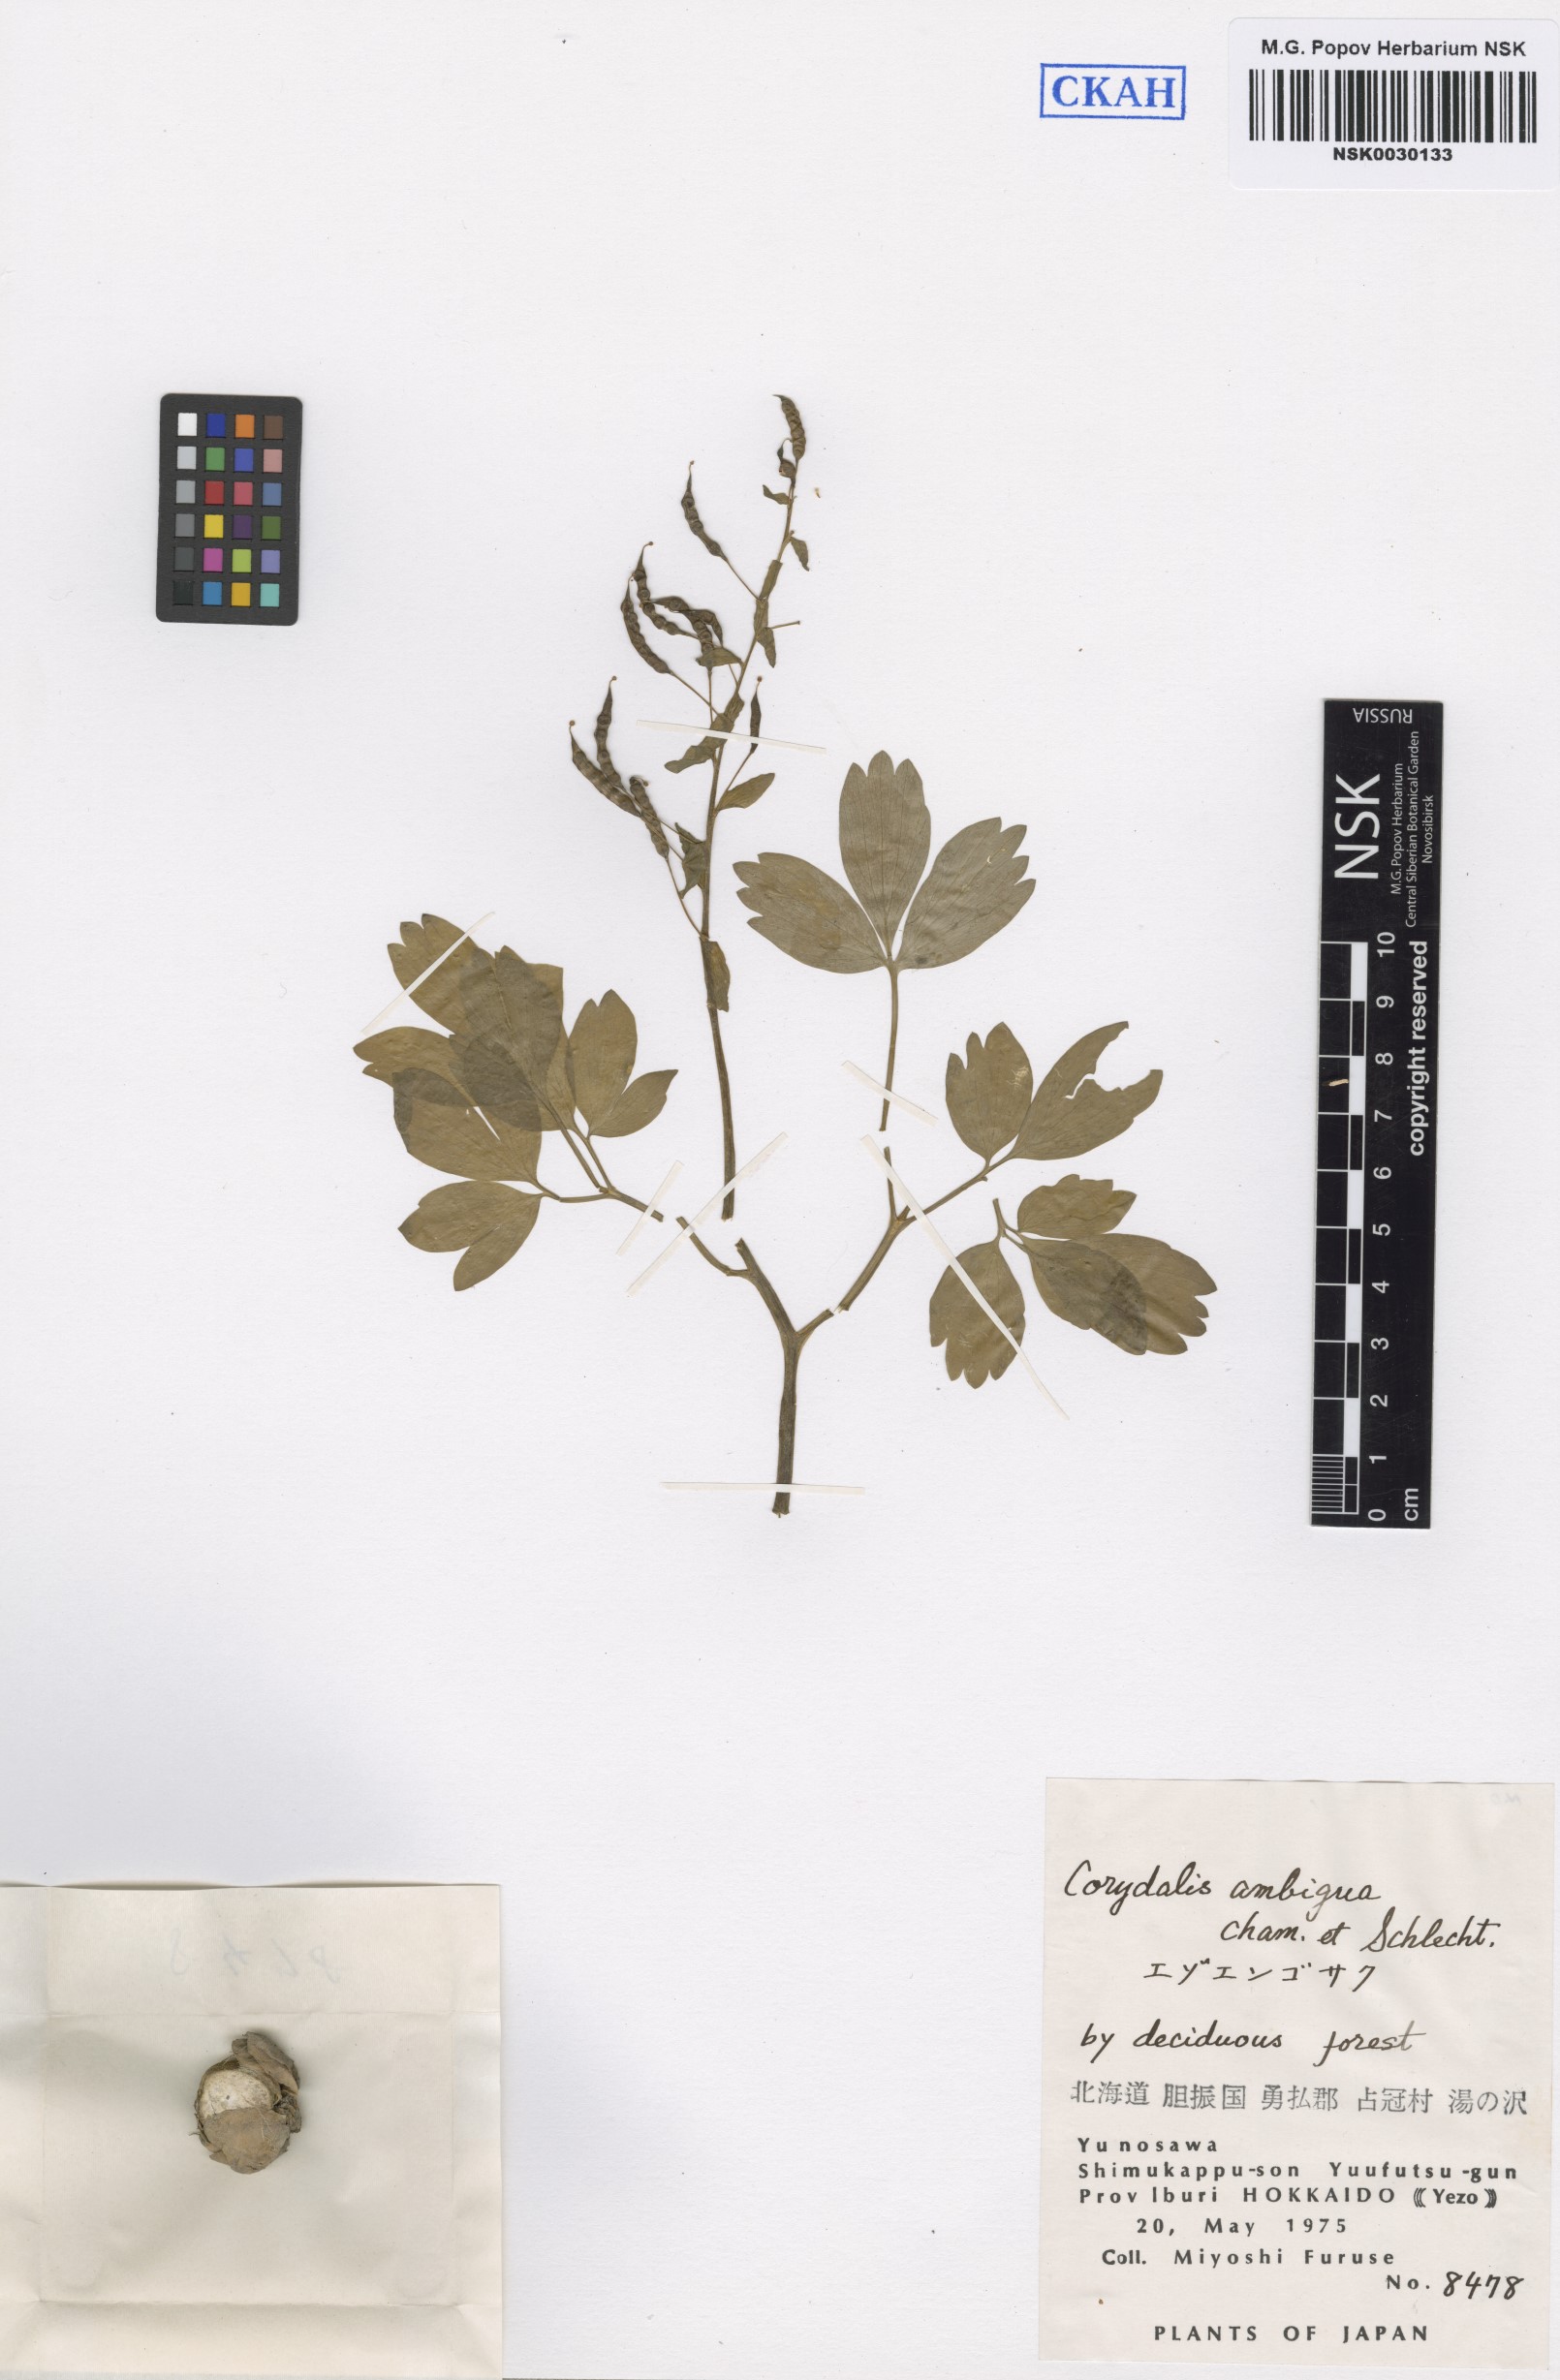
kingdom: Plantae
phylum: Tracheophyta
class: Magnoliopsida
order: Ranunculales
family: Papaveraceae
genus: Corydalis
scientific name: Corydalis ambigua
